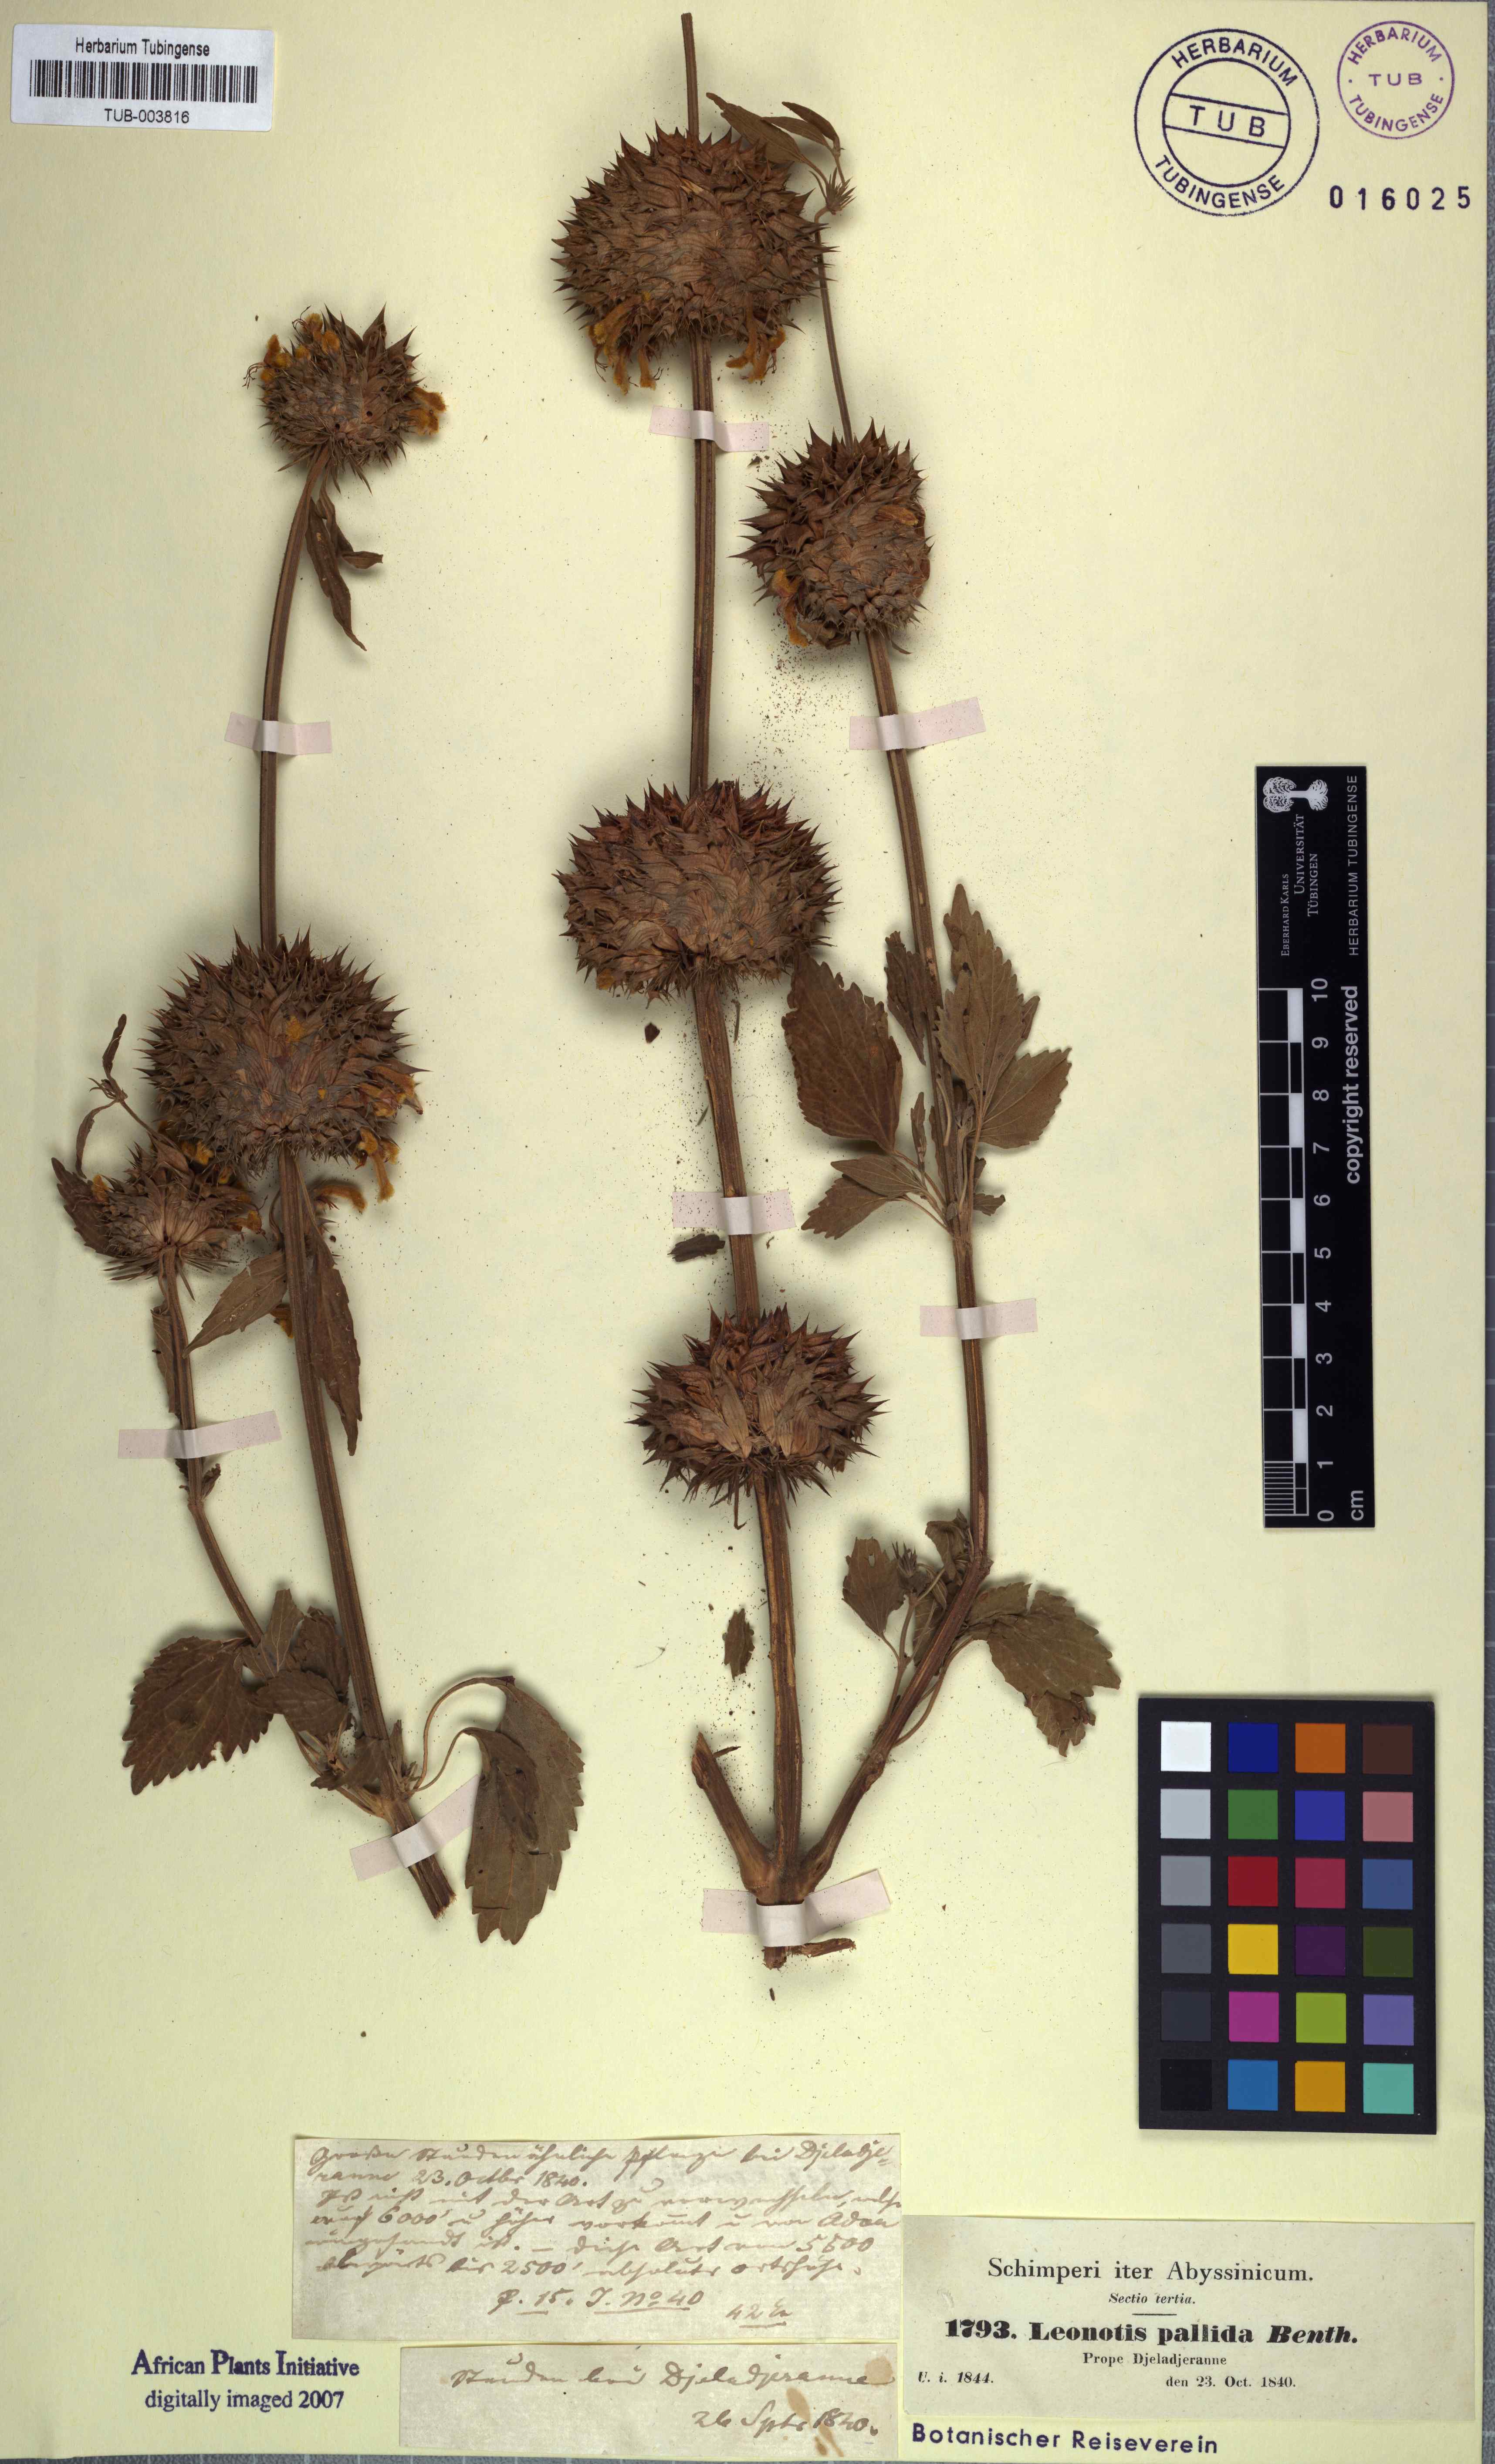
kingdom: Plantae
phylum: Tracheophyta
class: Magnoliopsida
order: Lamiales
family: Lamiaceae
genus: Leonotis
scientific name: Leonotis nepetifolia
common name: Christmas candlestick
